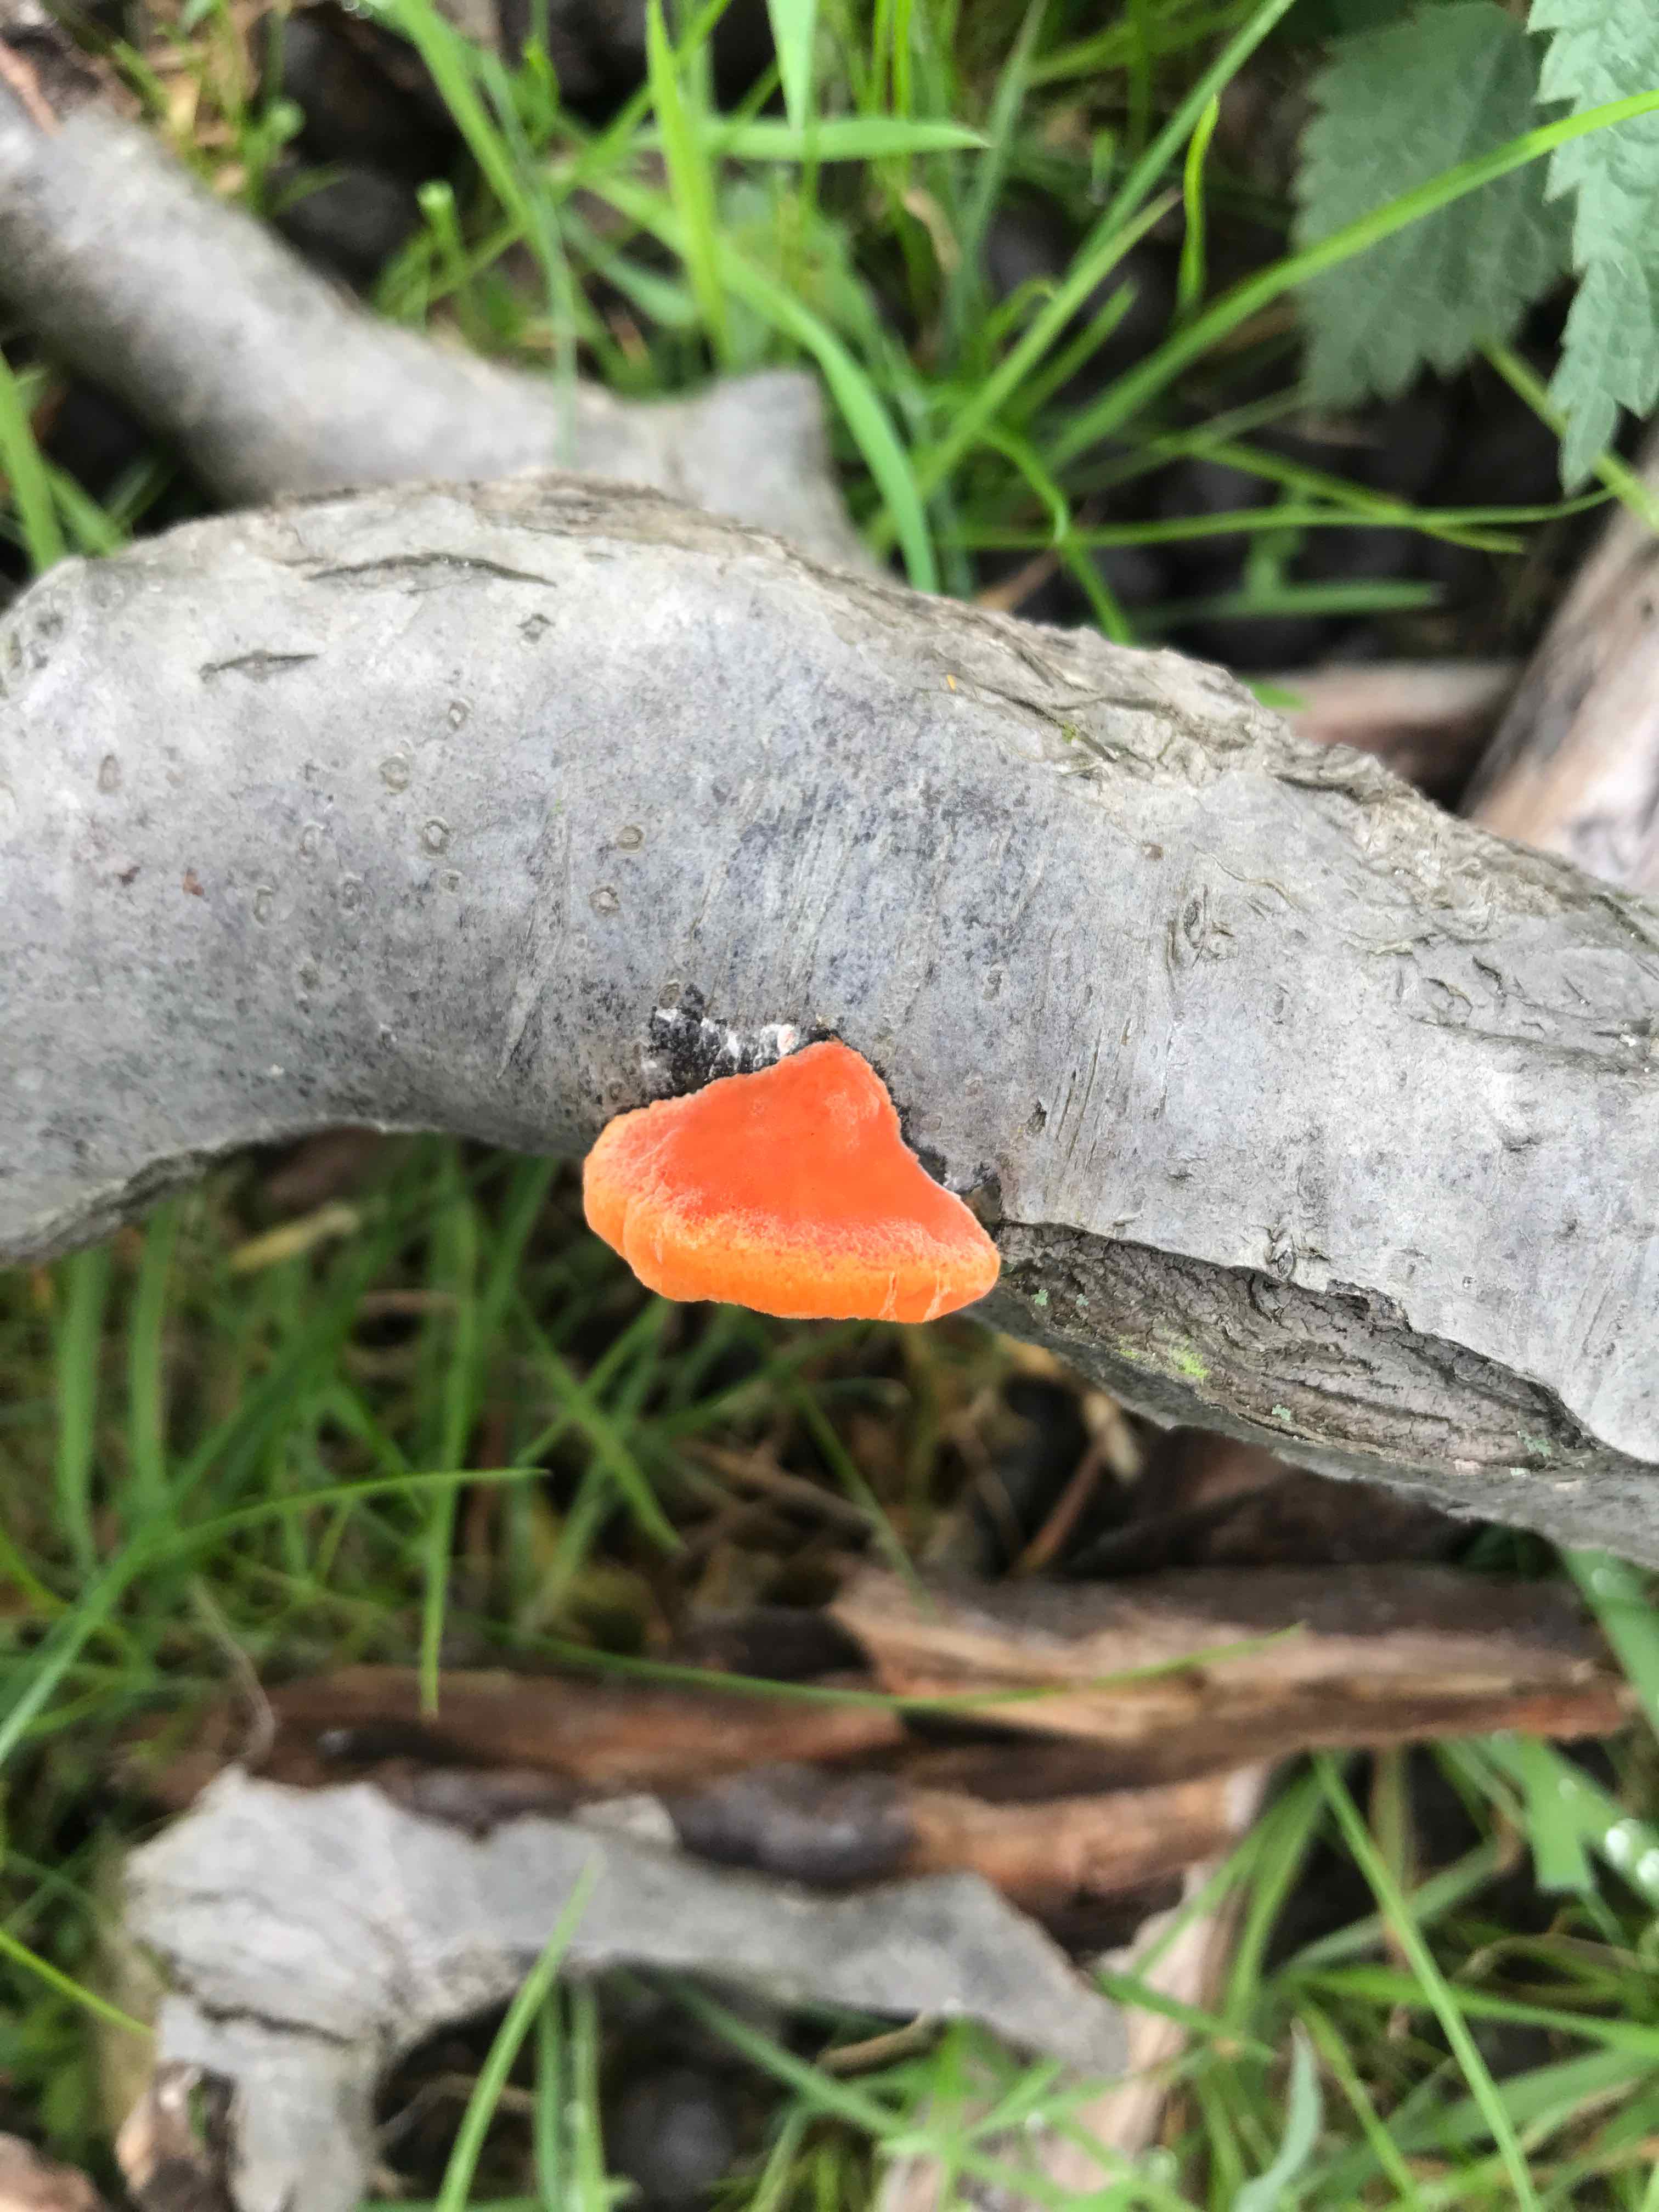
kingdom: Fungi
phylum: Basidiomycota
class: Agaricomycetes
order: Polyporales
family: Polyporaceae
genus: Trametes
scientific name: Trametes cinnabarina
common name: cinnoberporesvamp
